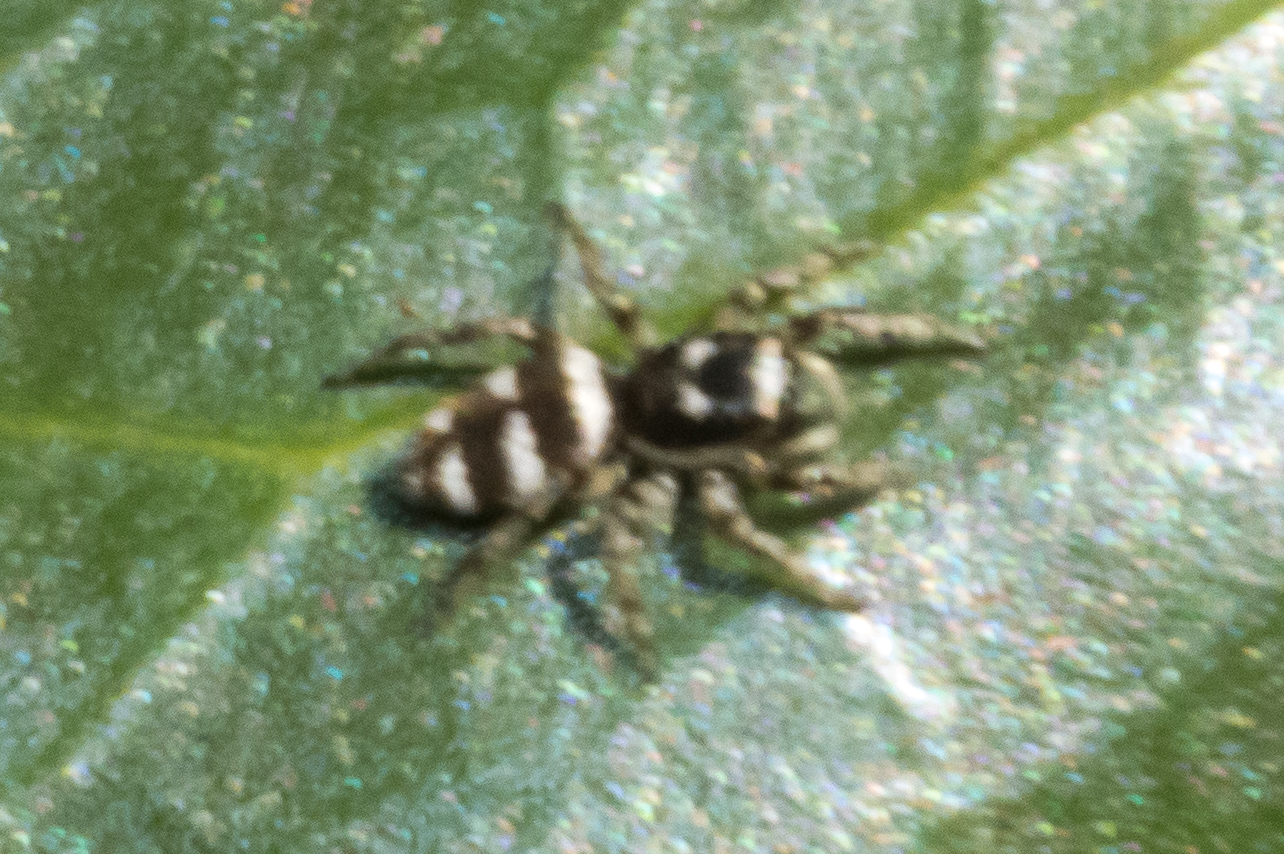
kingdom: Animalia
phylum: Arthropoda
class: Arachnida
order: Araneae
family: Salticidae
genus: Salticus
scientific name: Salticus scenicus
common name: Almindelig zebraedderkop
